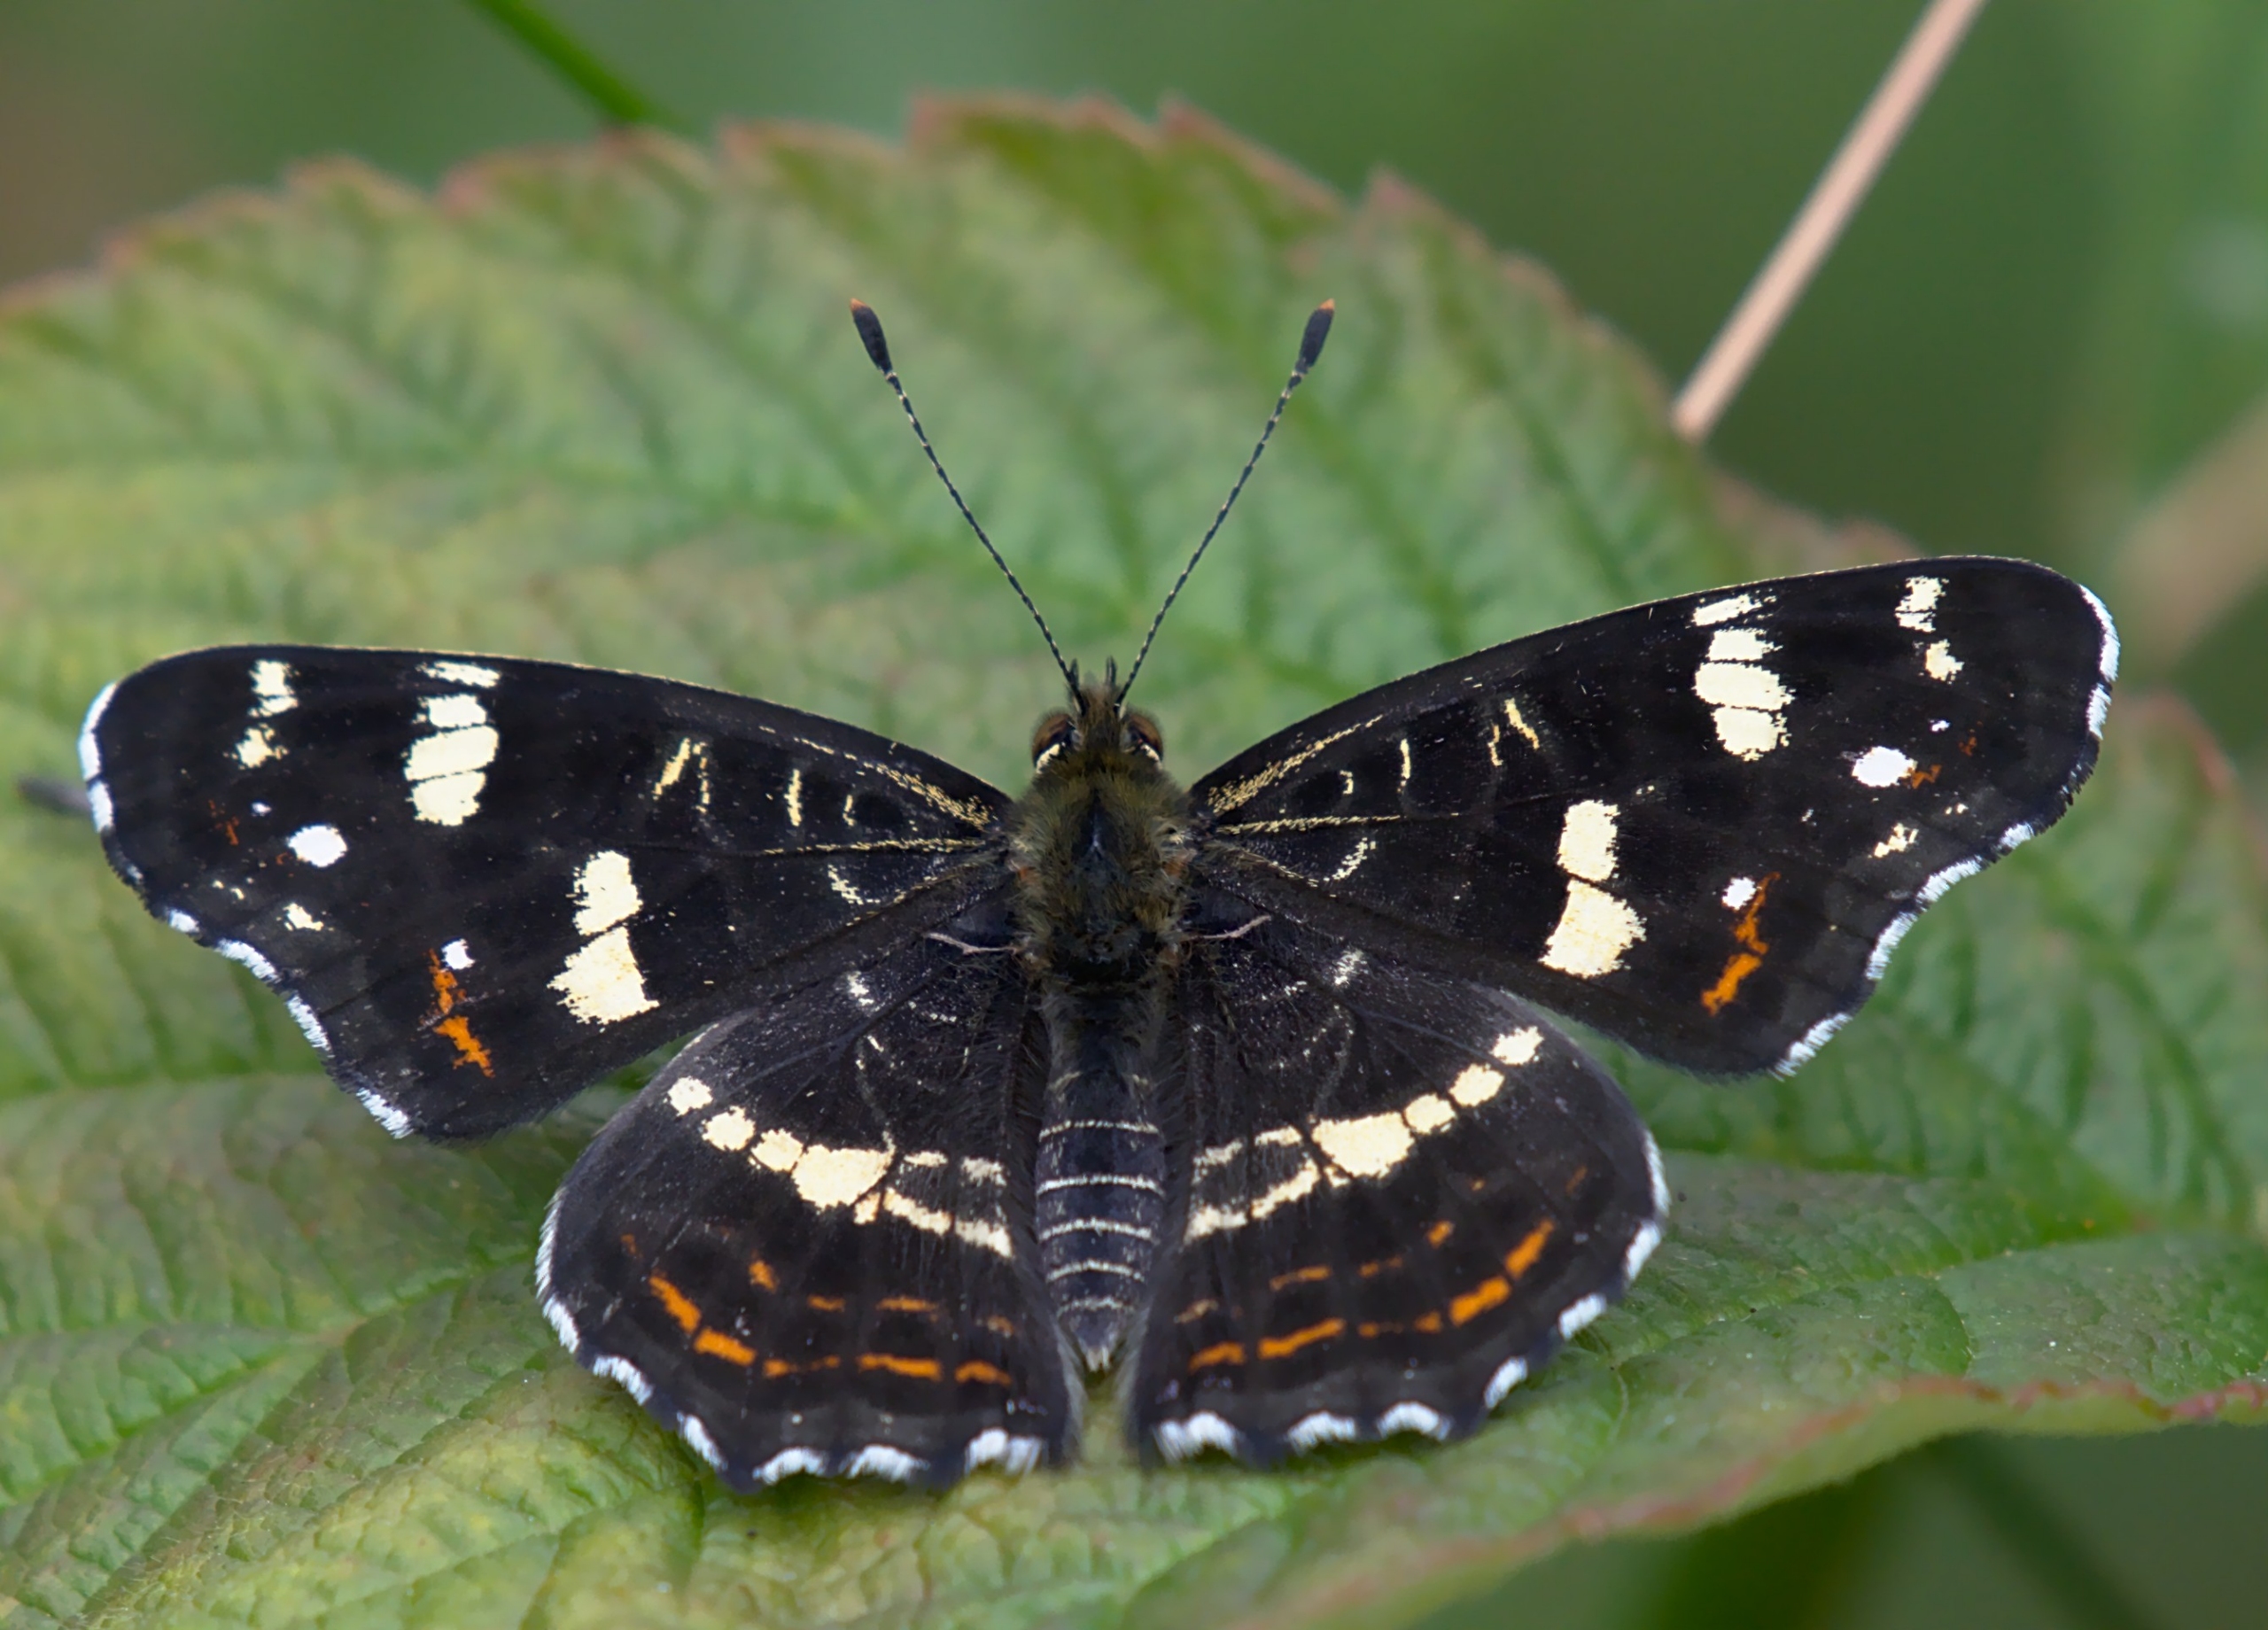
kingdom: Animalia
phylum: Arthropoda
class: Insecta
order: Lepidoptera
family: Nymphalidae
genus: Araschnia
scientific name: Araschnia levana
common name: Nældesommerfugl
